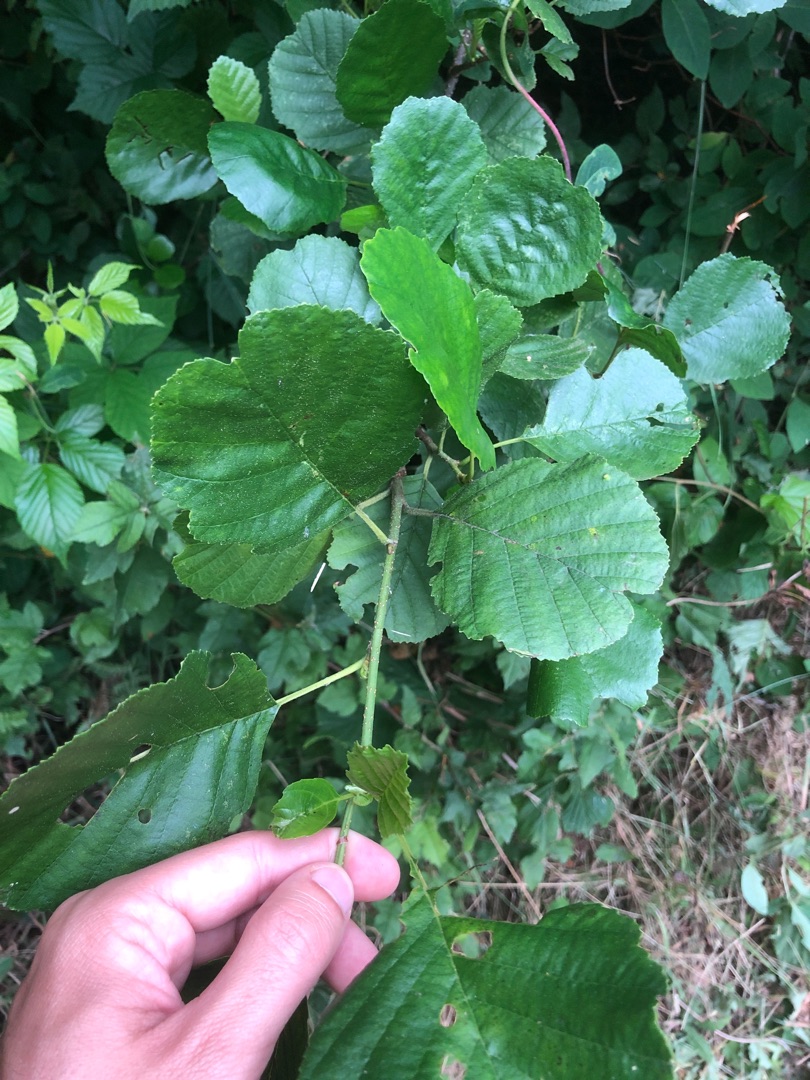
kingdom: Plantae
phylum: Tracheophyta
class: Magnoliopsida
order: Fagales
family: Betulaceae
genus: Alnus
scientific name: Alnus glutinosa
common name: Rød-el
